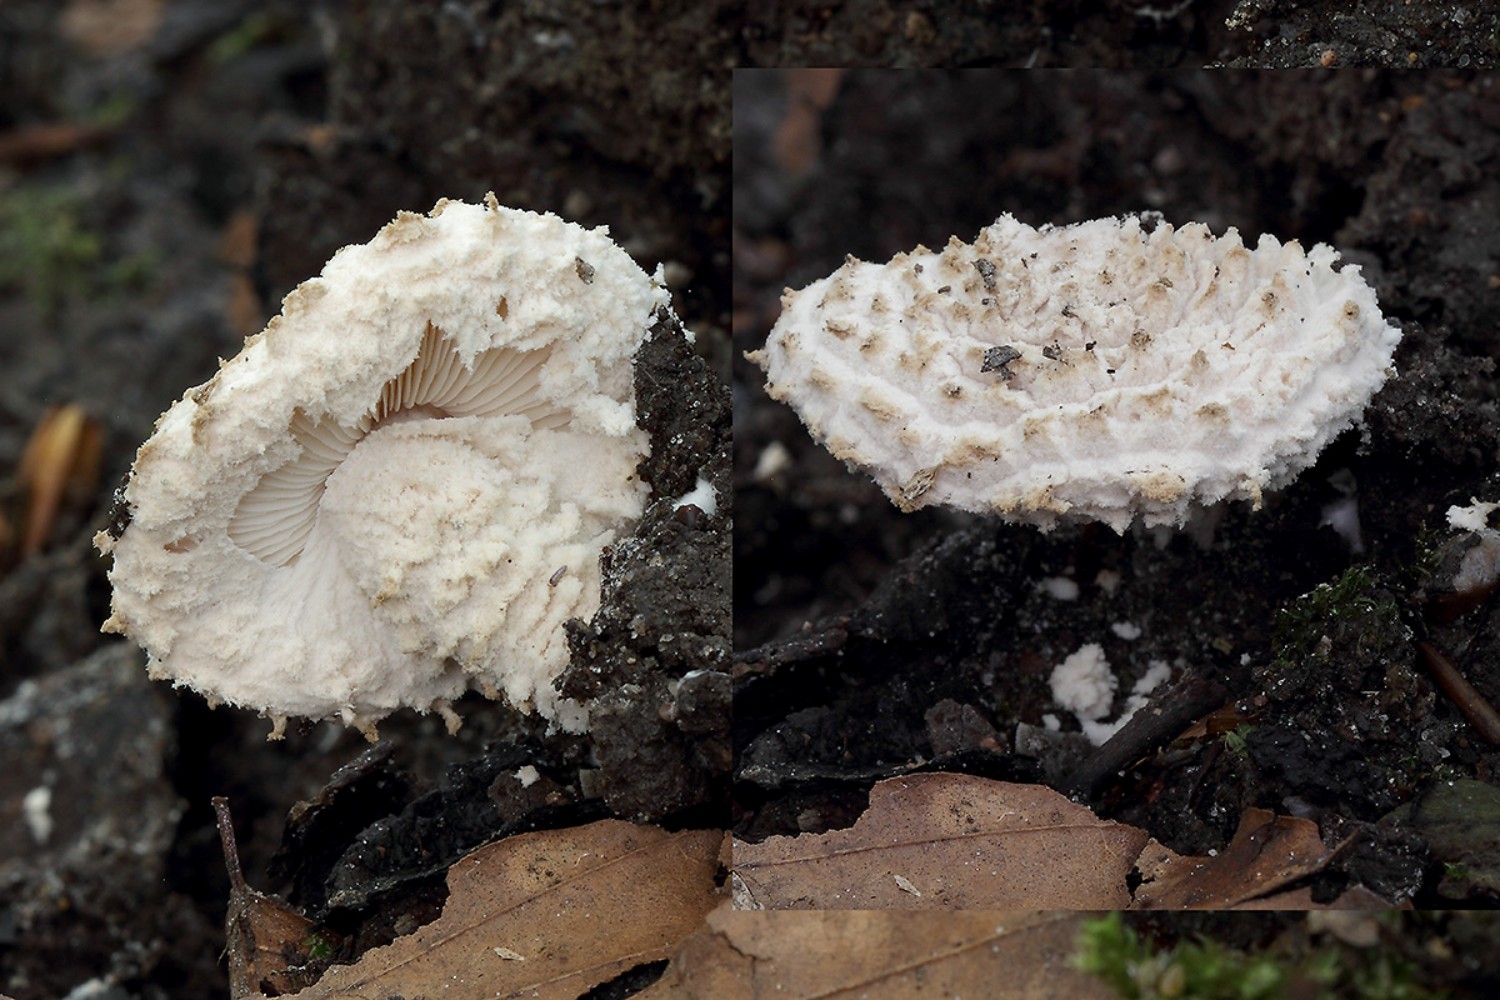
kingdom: Fungi
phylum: Basidiomycota
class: Agaricomycetes
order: Agaricales
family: Agaricaceae
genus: Cystolepiota
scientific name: Cystolepiota adulterina
